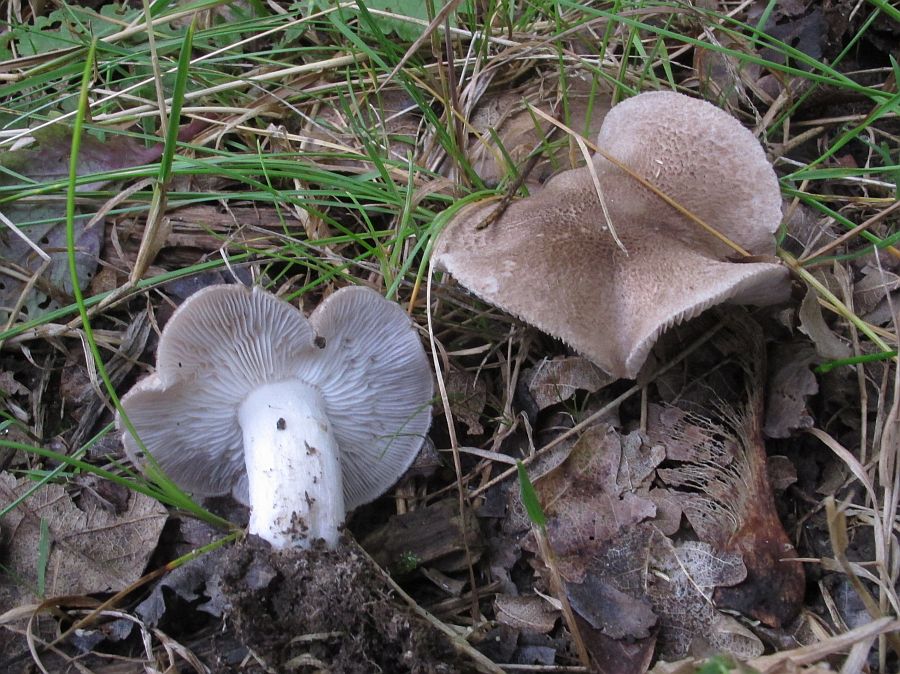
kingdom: Fungi
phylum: Basidiomycota
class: Agaricomycetes
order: Agaricales
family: Tricholomataceae
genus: Tricholoma
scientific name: Tricholoma scalpturatum
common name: gulplettet ridderhat
